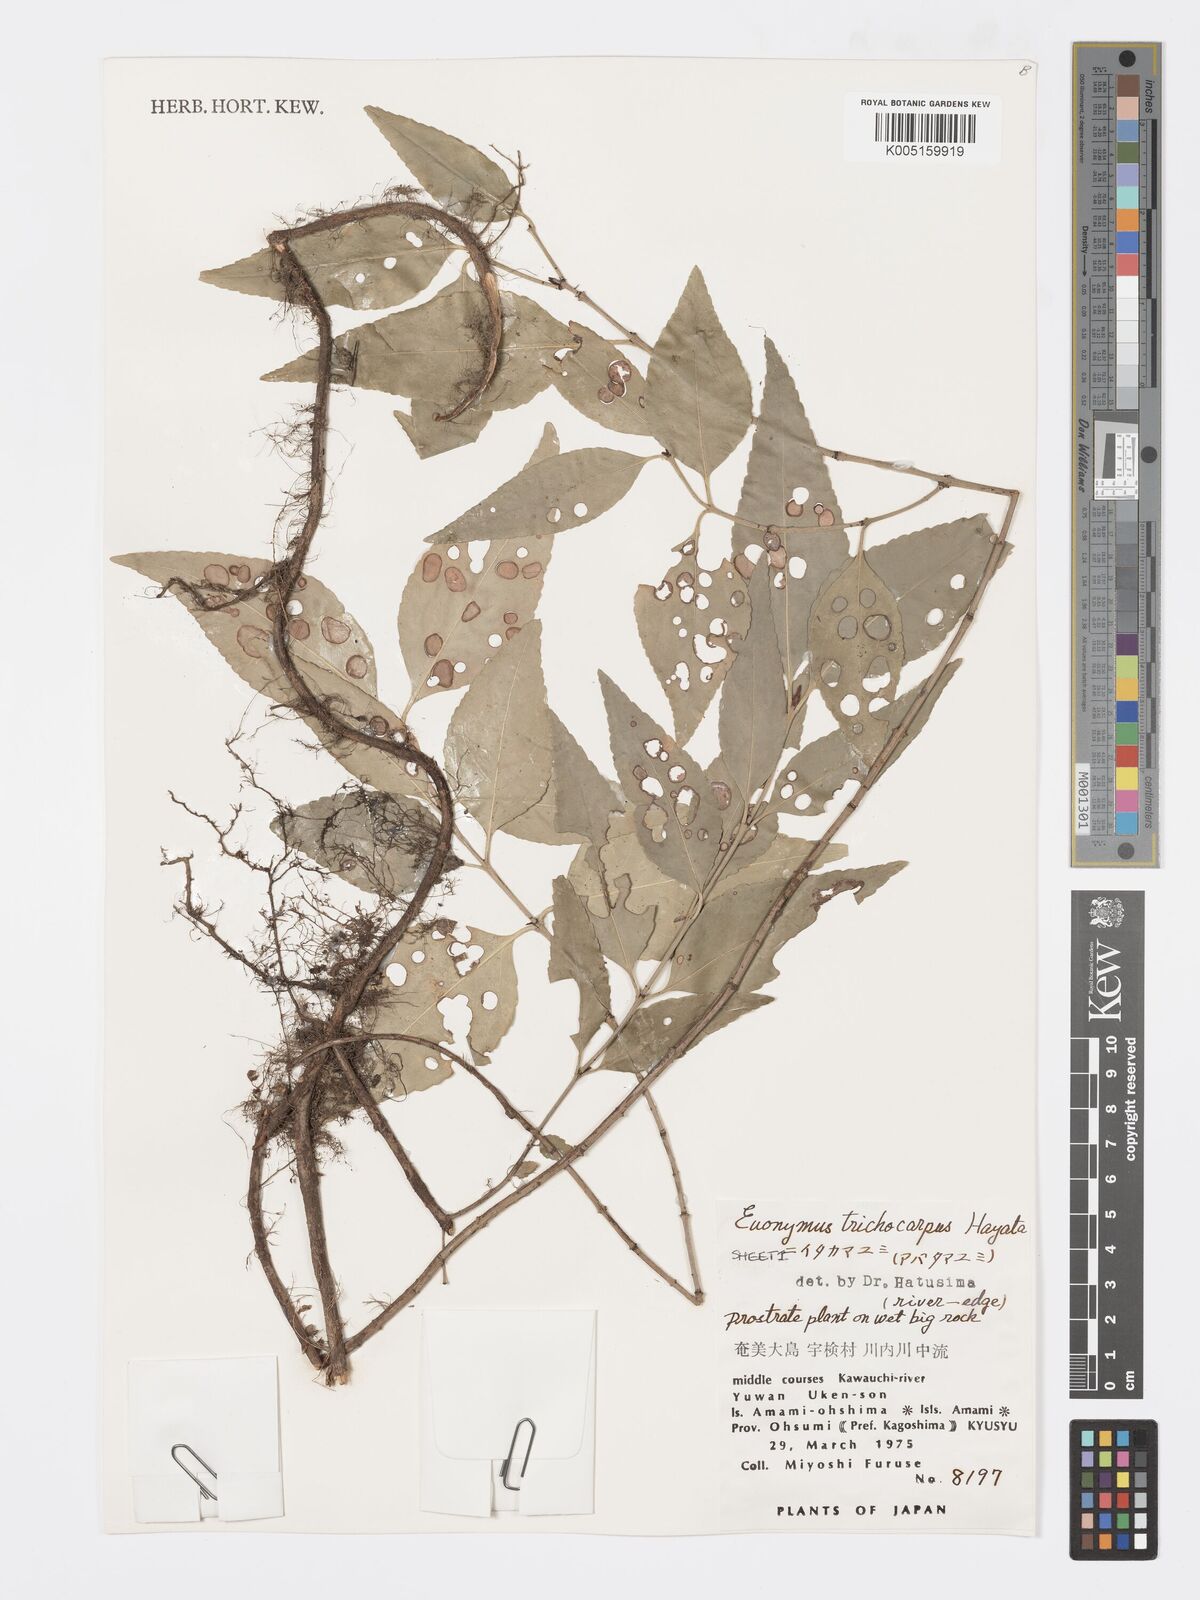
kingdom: Plantae
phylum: Tracheophyta
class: Magnoliopsida
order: Celastrales
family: Celastraceae
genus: Euonymus
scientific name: Euonymus echinatus
